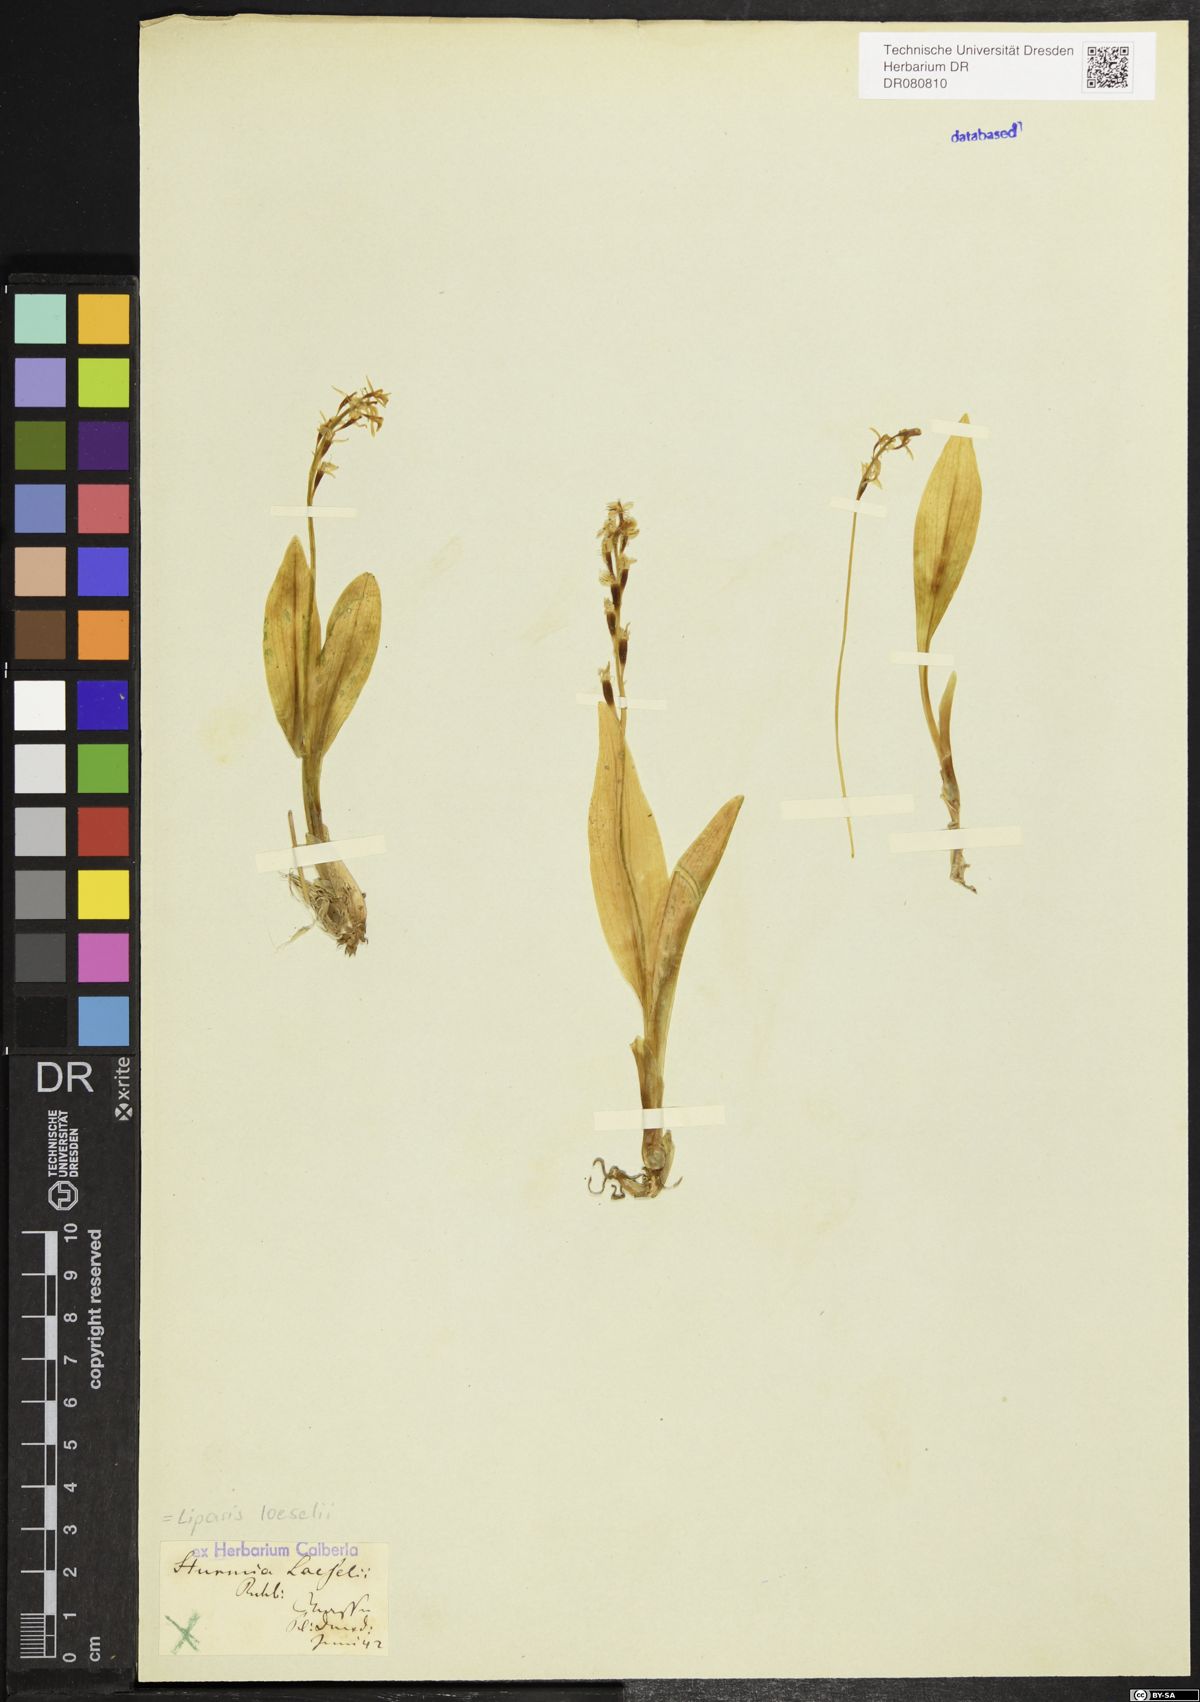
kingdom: Animalia
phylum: Arthropoda
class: Insecta
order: Coleoptera
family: Curculionidae
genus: Liparis
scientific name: Liparis loeselii
